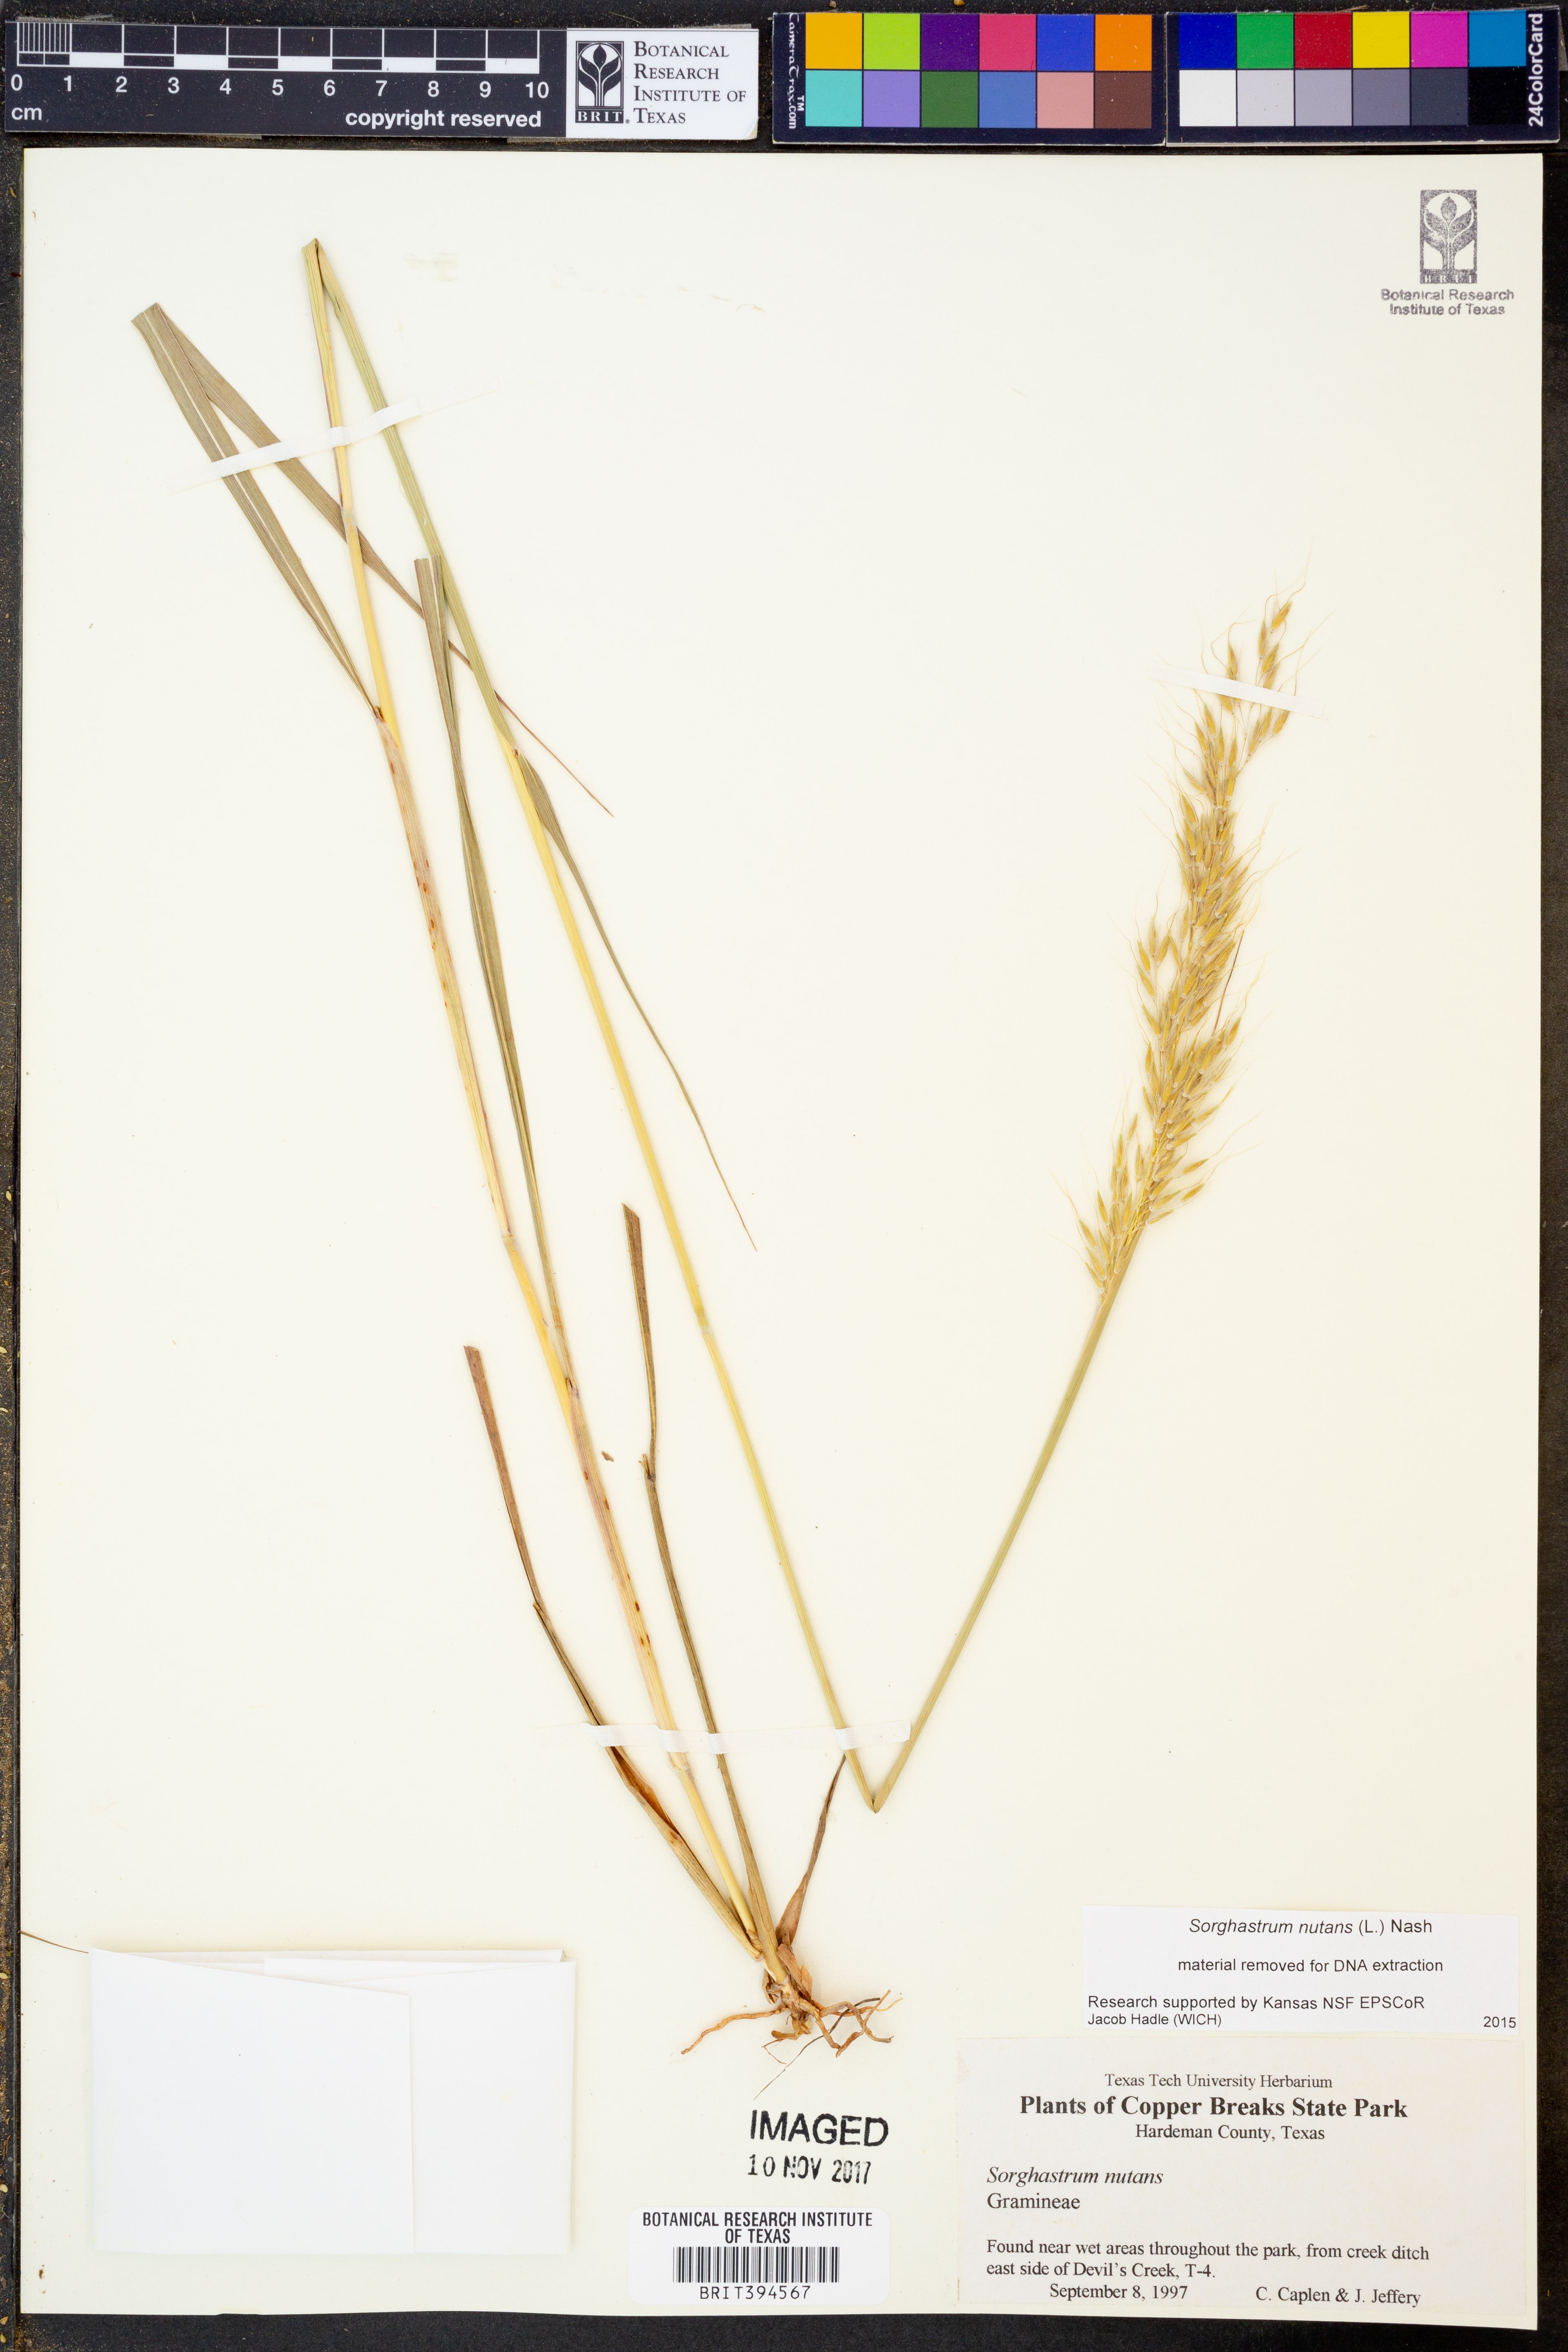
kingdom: Plantae
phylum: Tracheophyta
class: Liliopsida
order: Poales
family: Poaceae
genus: Sorghastrum
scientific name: Sorghastrum nutans
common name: Indian grass
